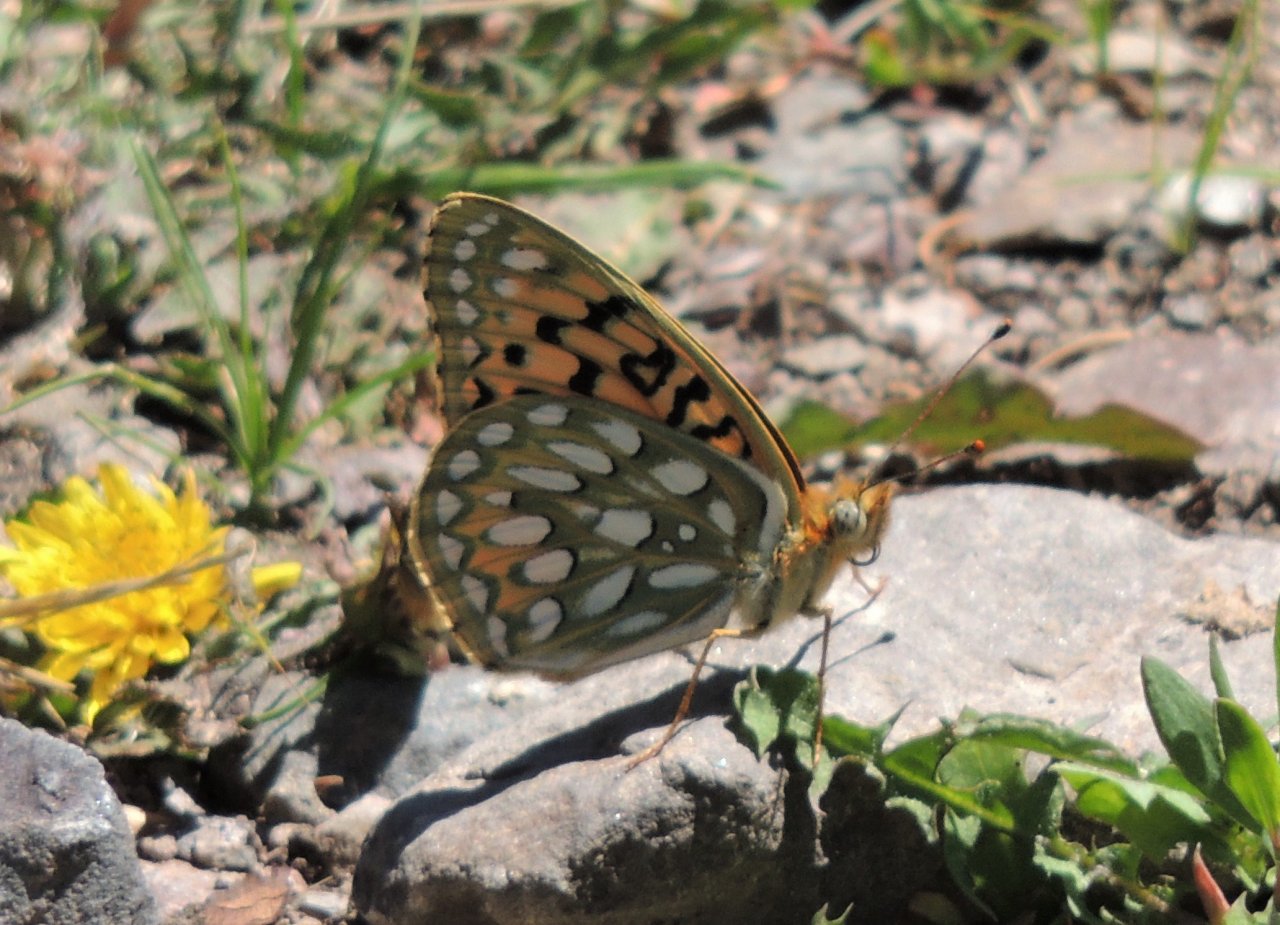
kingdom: Animalia
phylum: Arthropoda
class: Insecta
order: Lepidoptera
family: Nymphalidae
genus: Speyeria
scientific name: Speyeria callippe
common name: Callippe Fritillary
